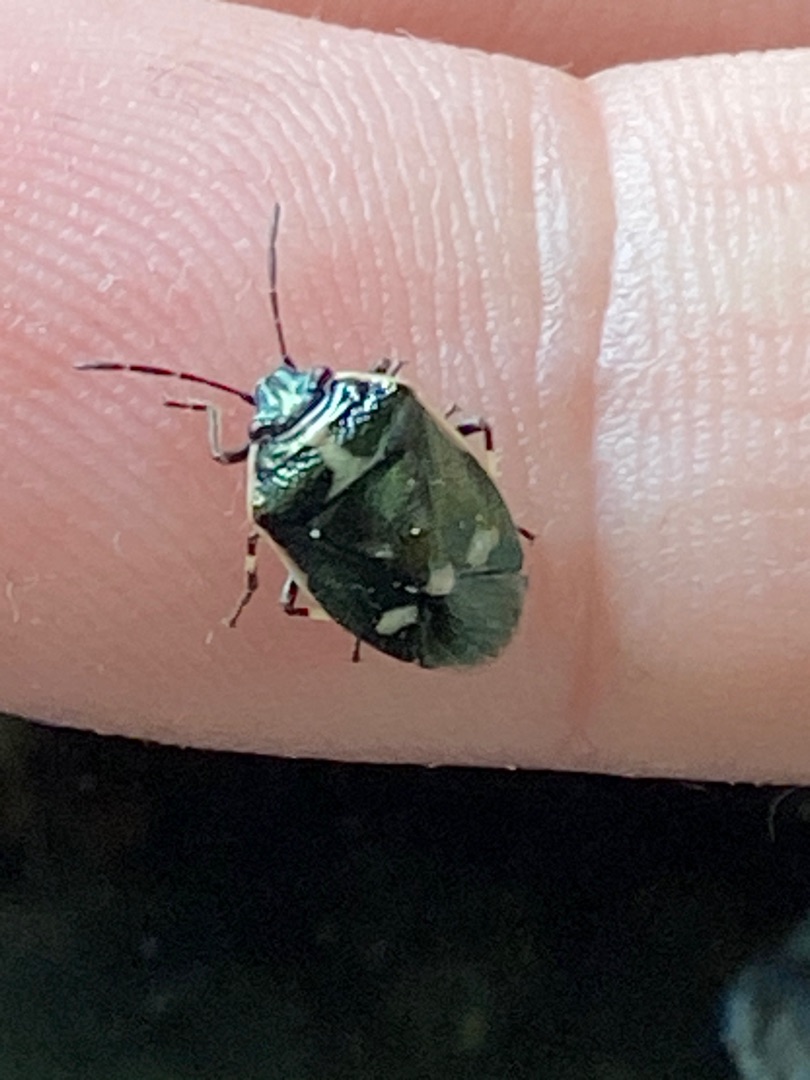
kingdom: Animalia
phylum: Arthropoda
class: Insecta
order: Hemiptera
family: Pentatomidae
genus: Eurydema
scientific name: Eurydema oleracea
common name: Almindelig kåltæge
